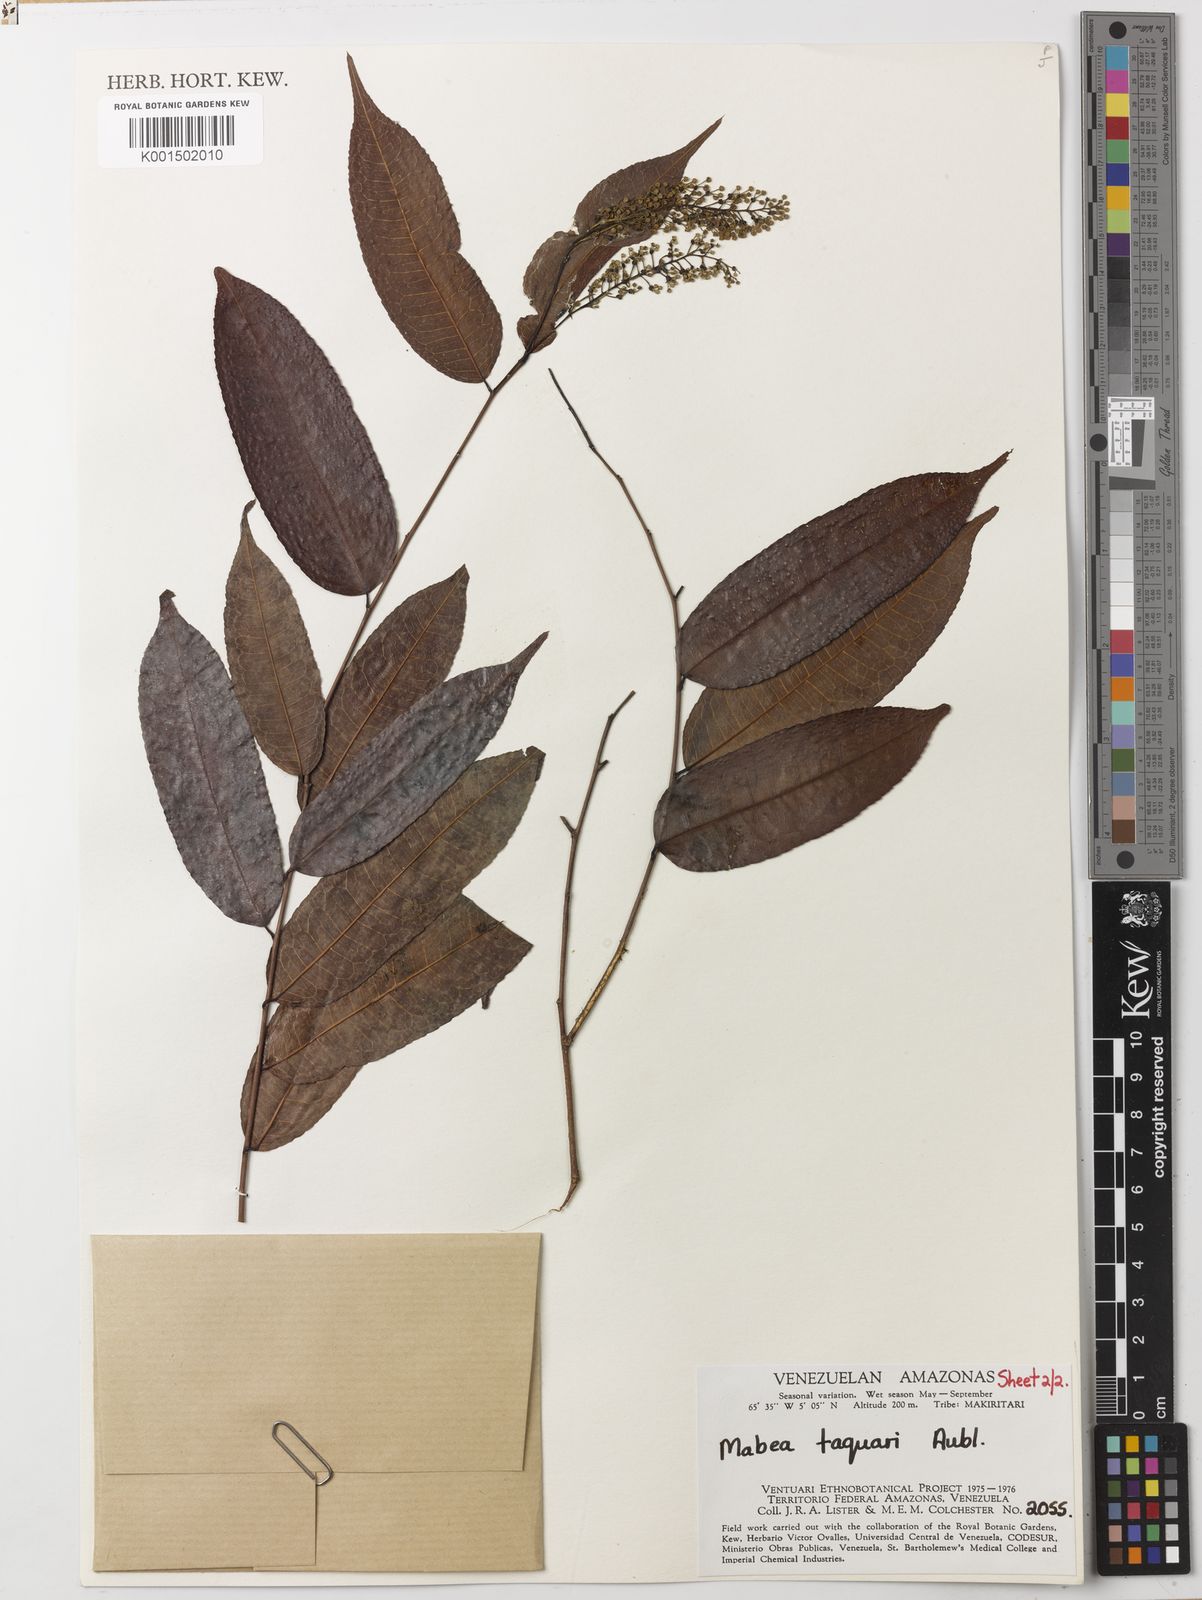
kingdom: Plantae
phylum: Tracheophyta
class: Magnoliopsida
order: Malpighiales
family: Euphorbiaceae
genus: Mabea
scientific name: Mabea trianae
